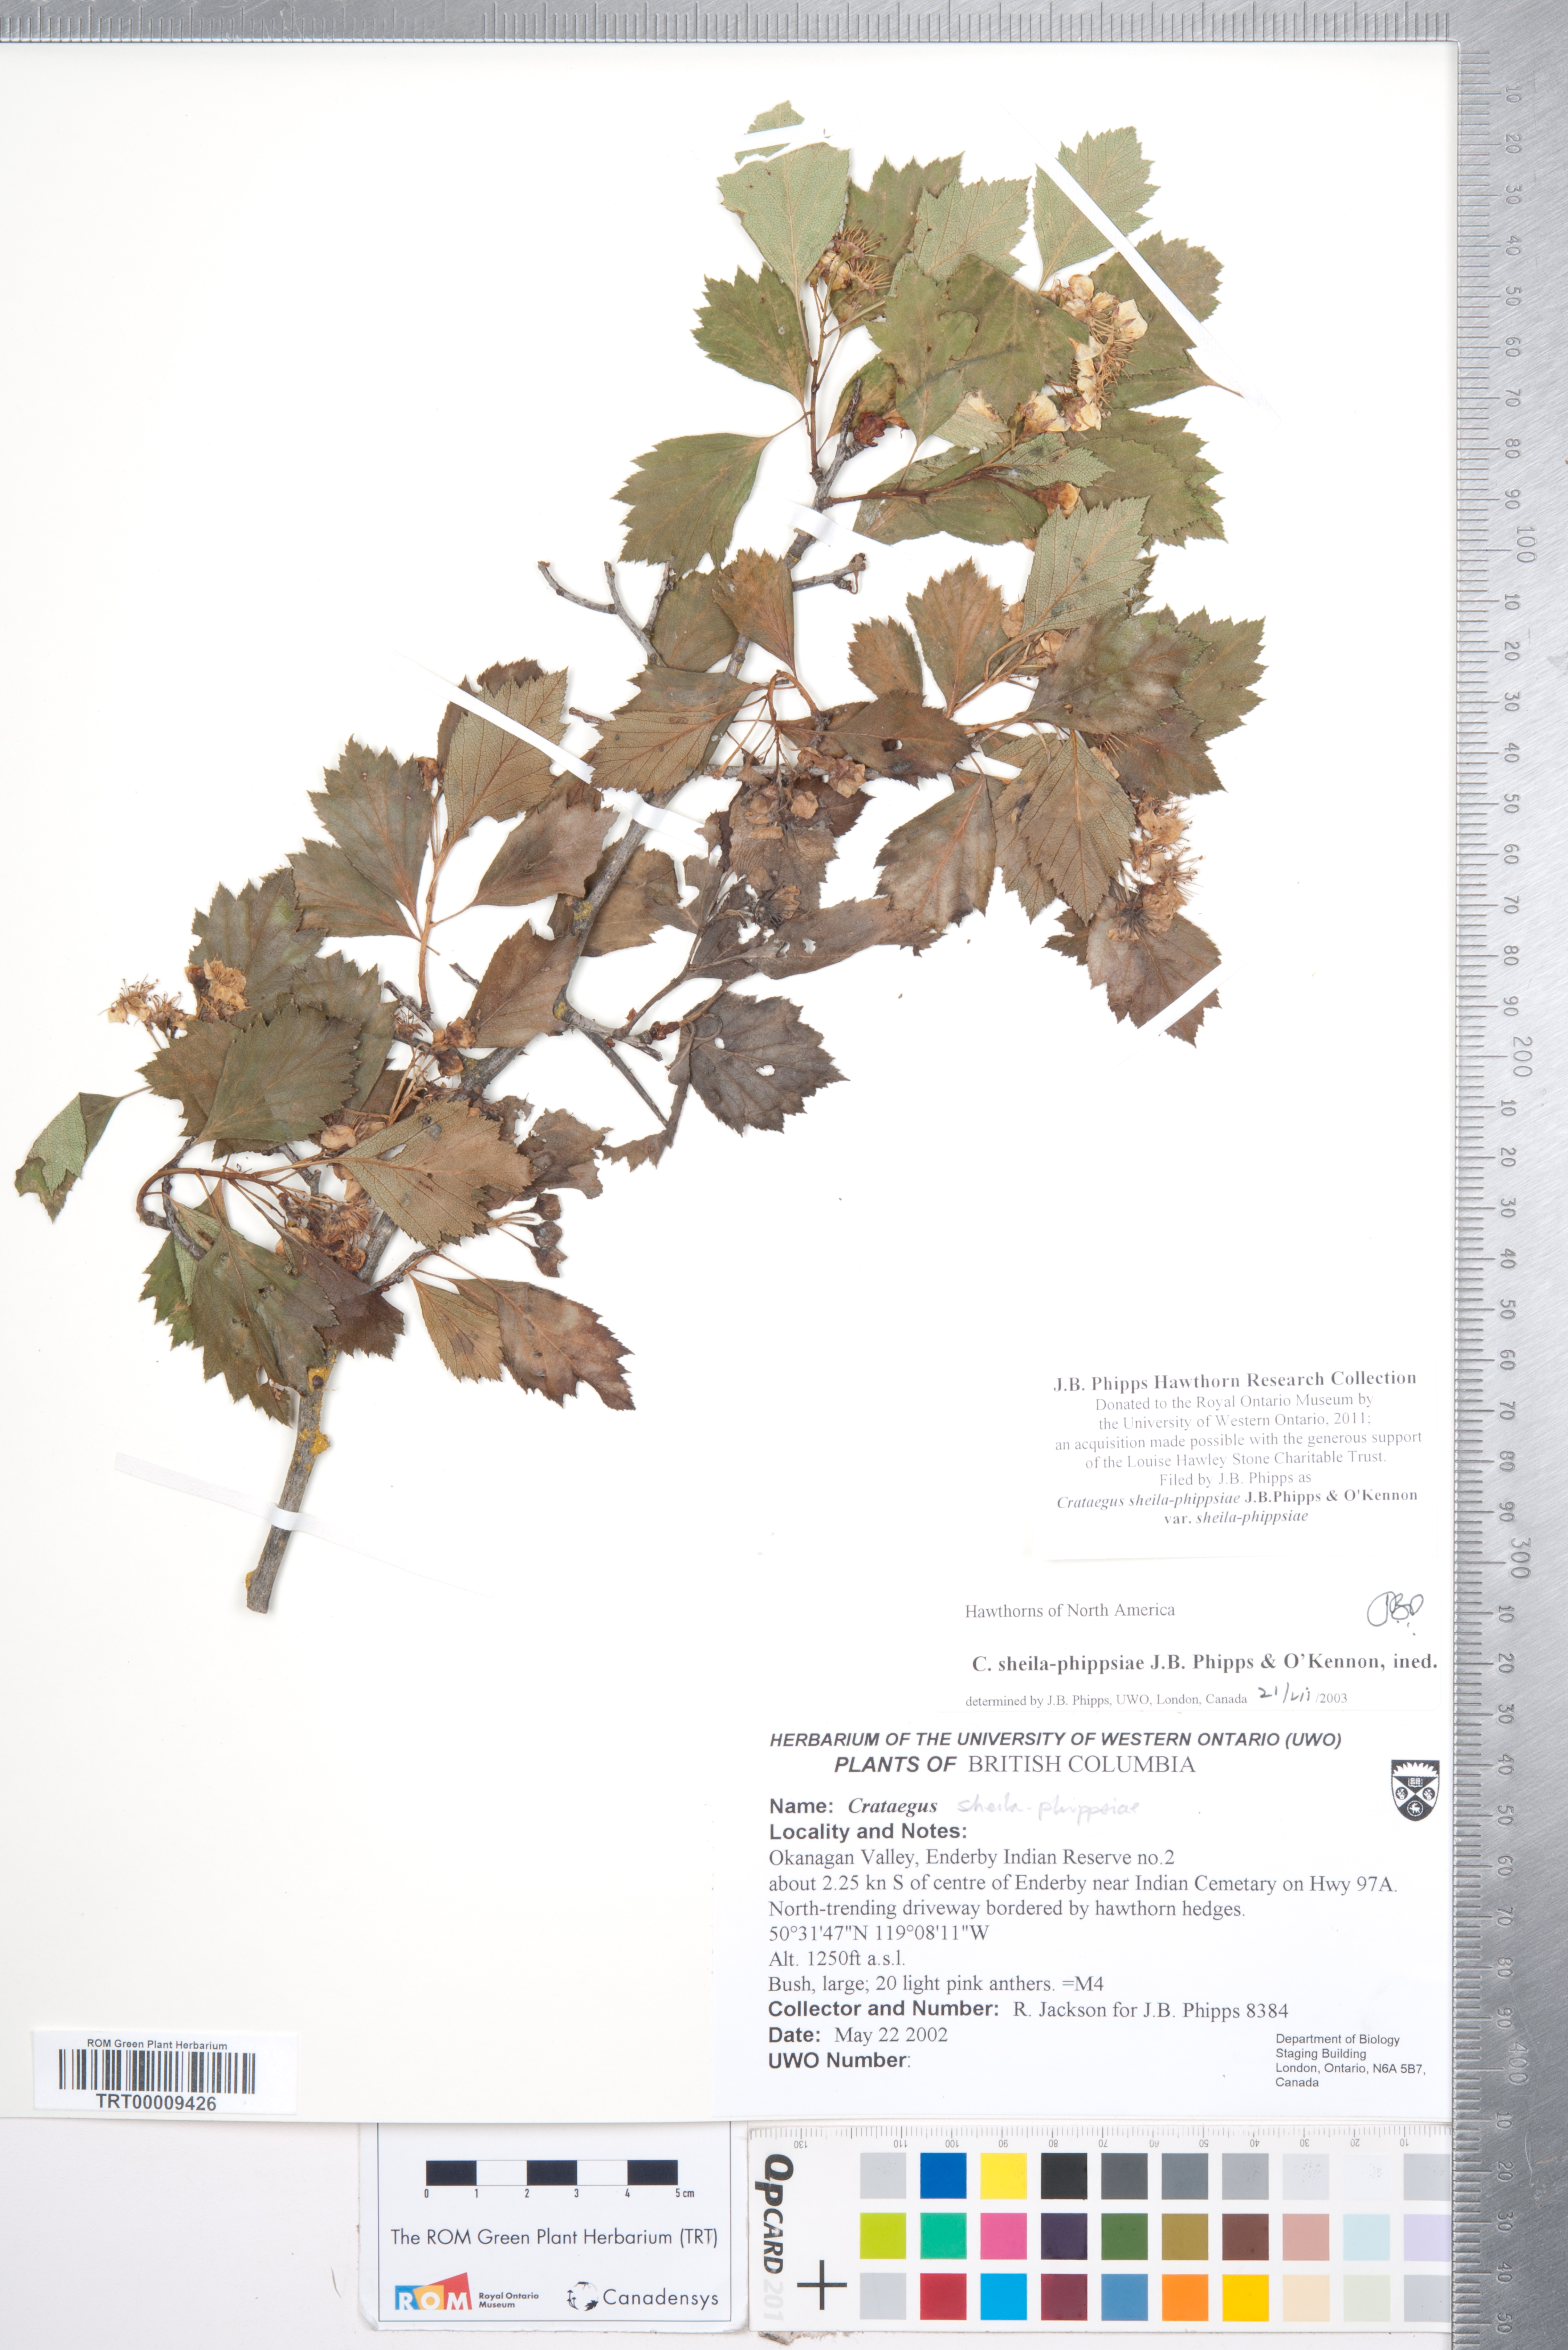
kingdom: Plantae
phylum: Tracheophyta
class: Magnoliopsida
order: Rosales
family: Rosaceae
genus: Crataegus
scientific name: Crataegus sheila-phippsiae
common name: Sheila phipps' hawthorn
